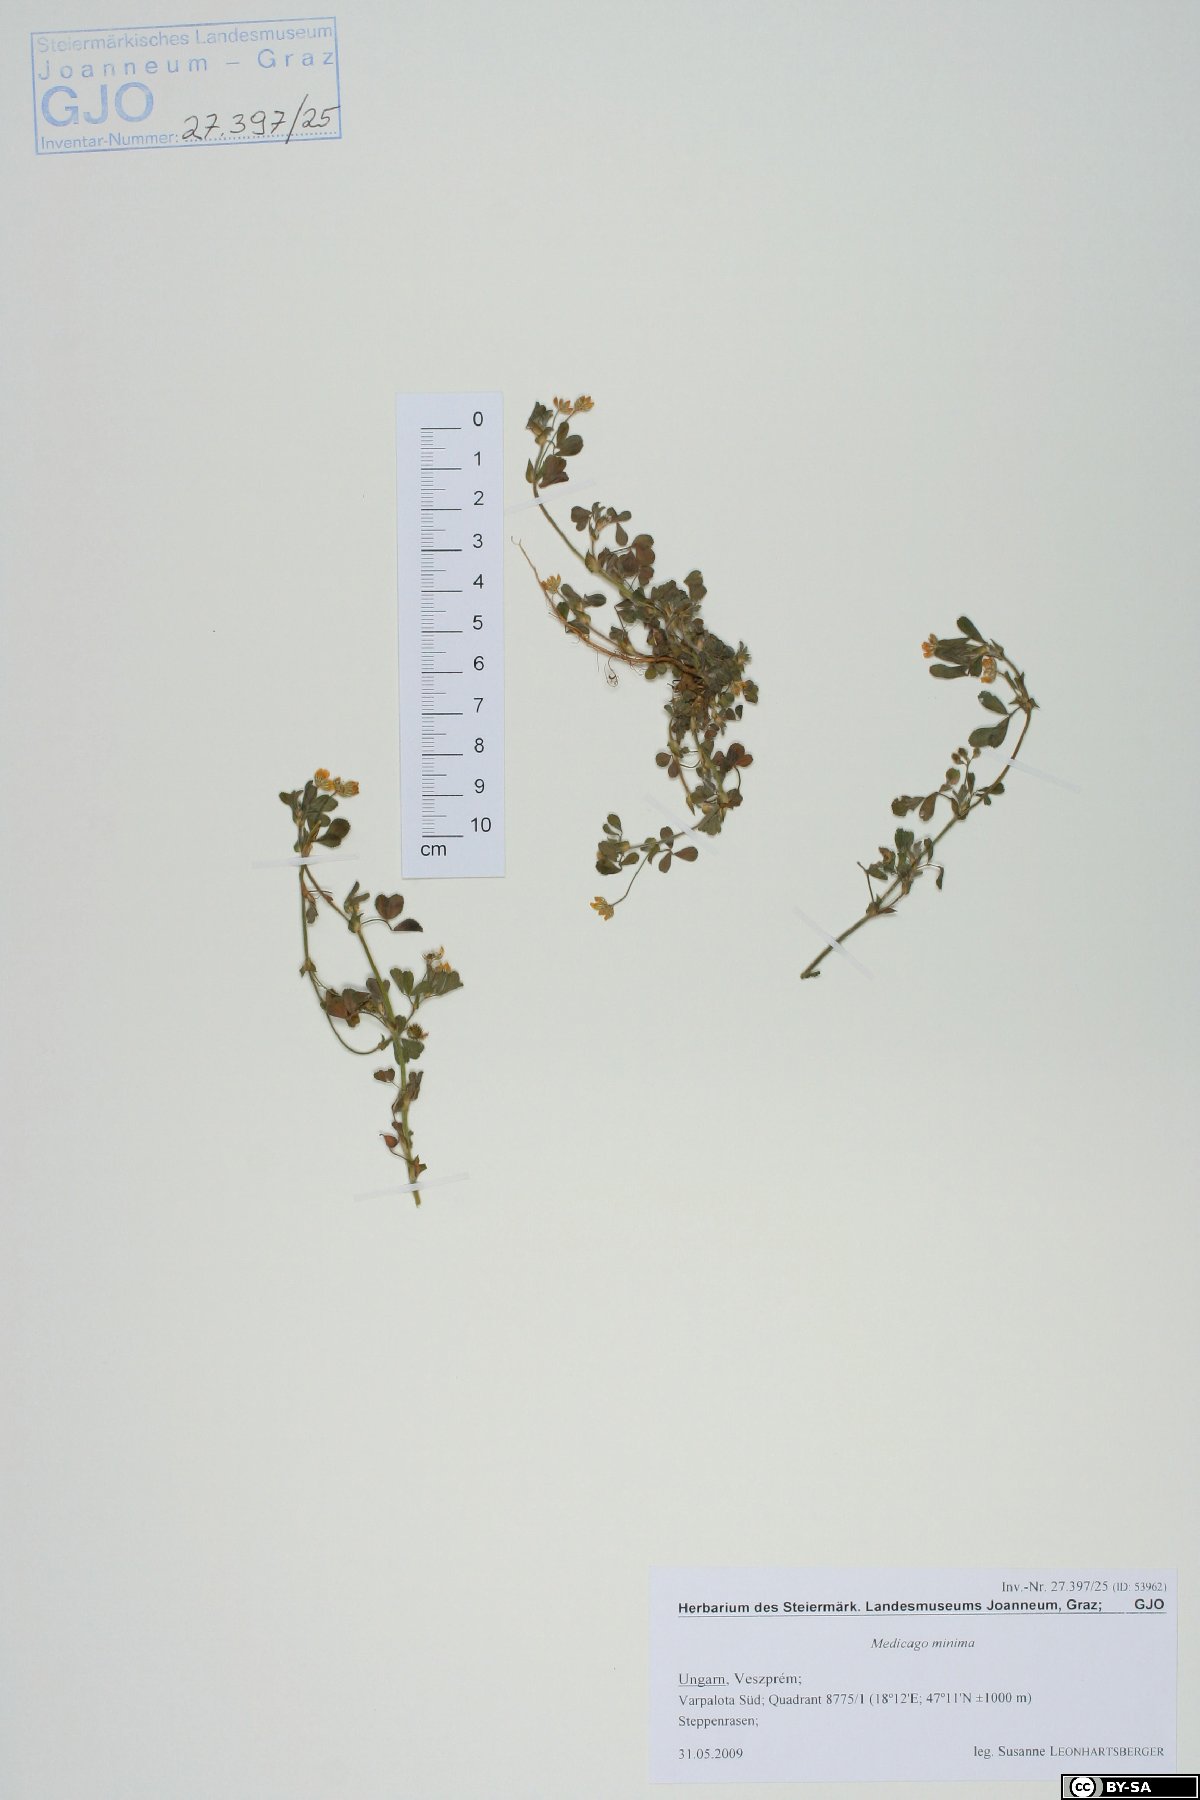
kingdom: Plantae
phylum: Tracheophyta
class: Magnoliopsida
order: Fabales
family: Fabaceae
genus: Medicago
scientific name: Medicago minima
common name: Little bur-clover
